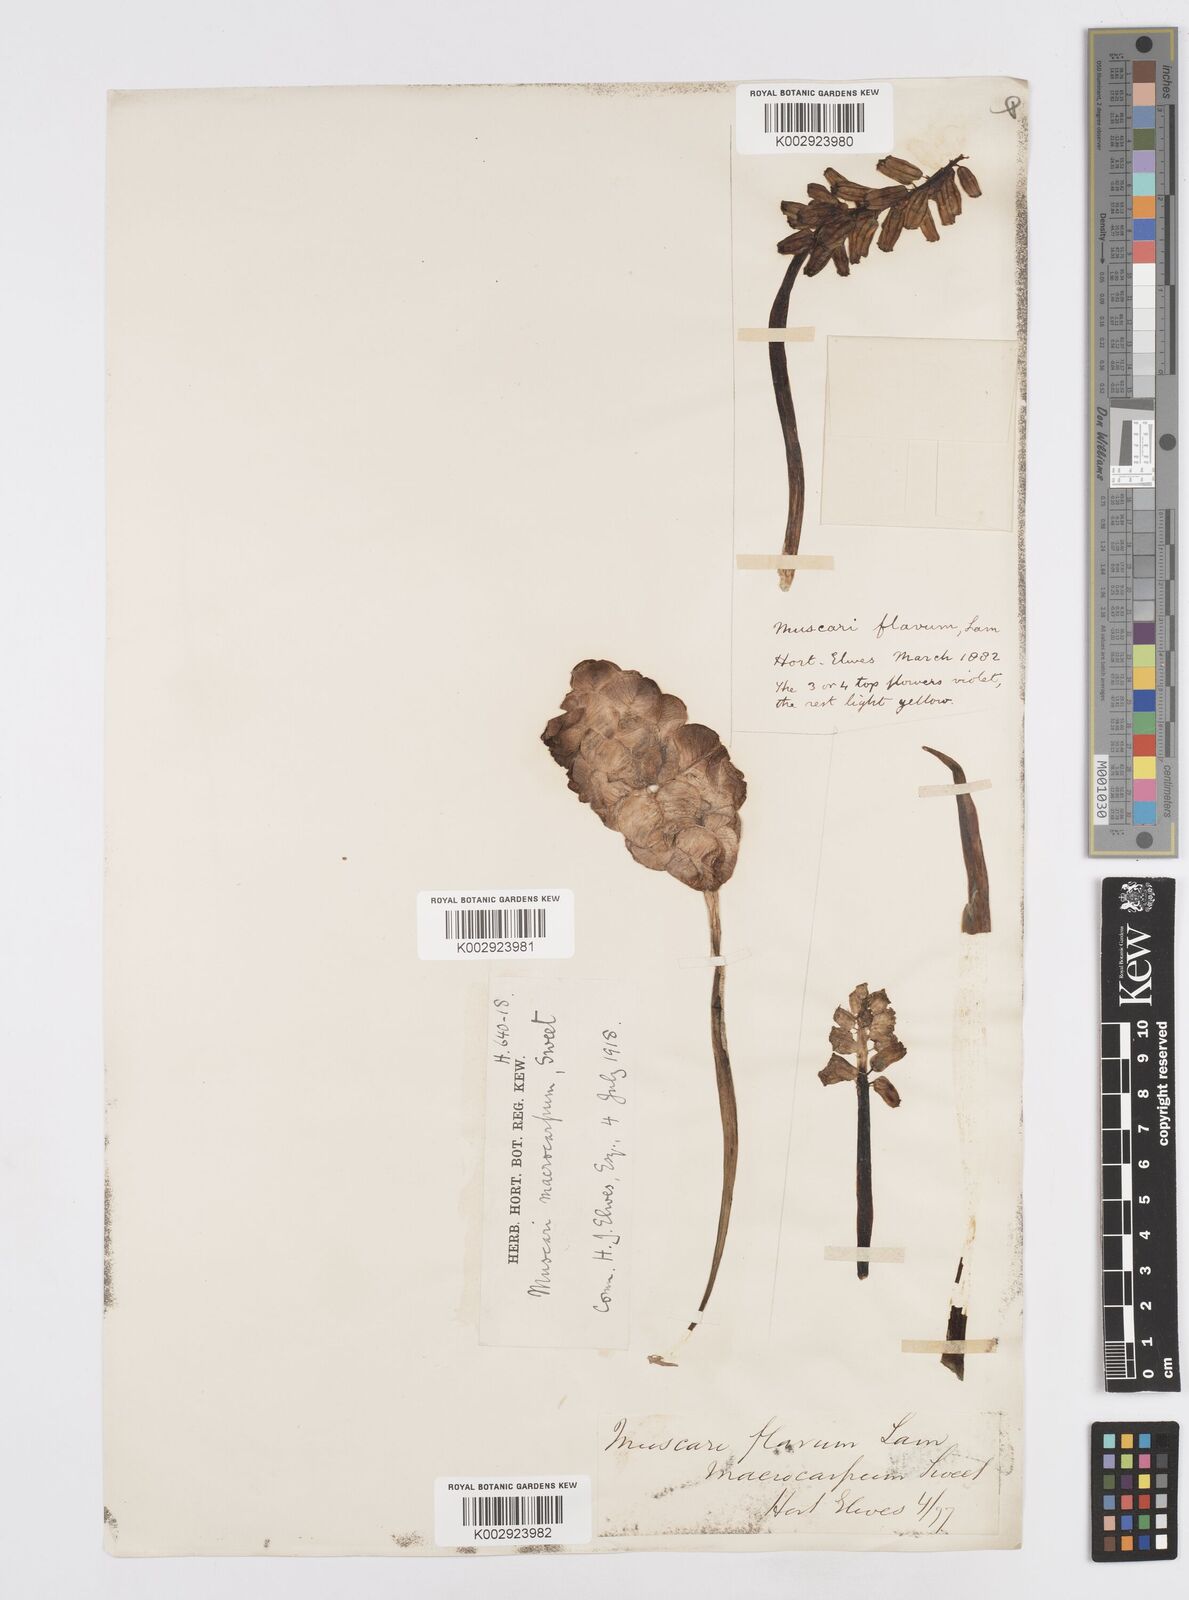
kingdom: Plantae
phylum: Tracheophyta
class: Liliopsida
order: Asparagales
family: Asparagaceae
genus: Muscarimia
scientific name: Muscarimia macrocarpa
